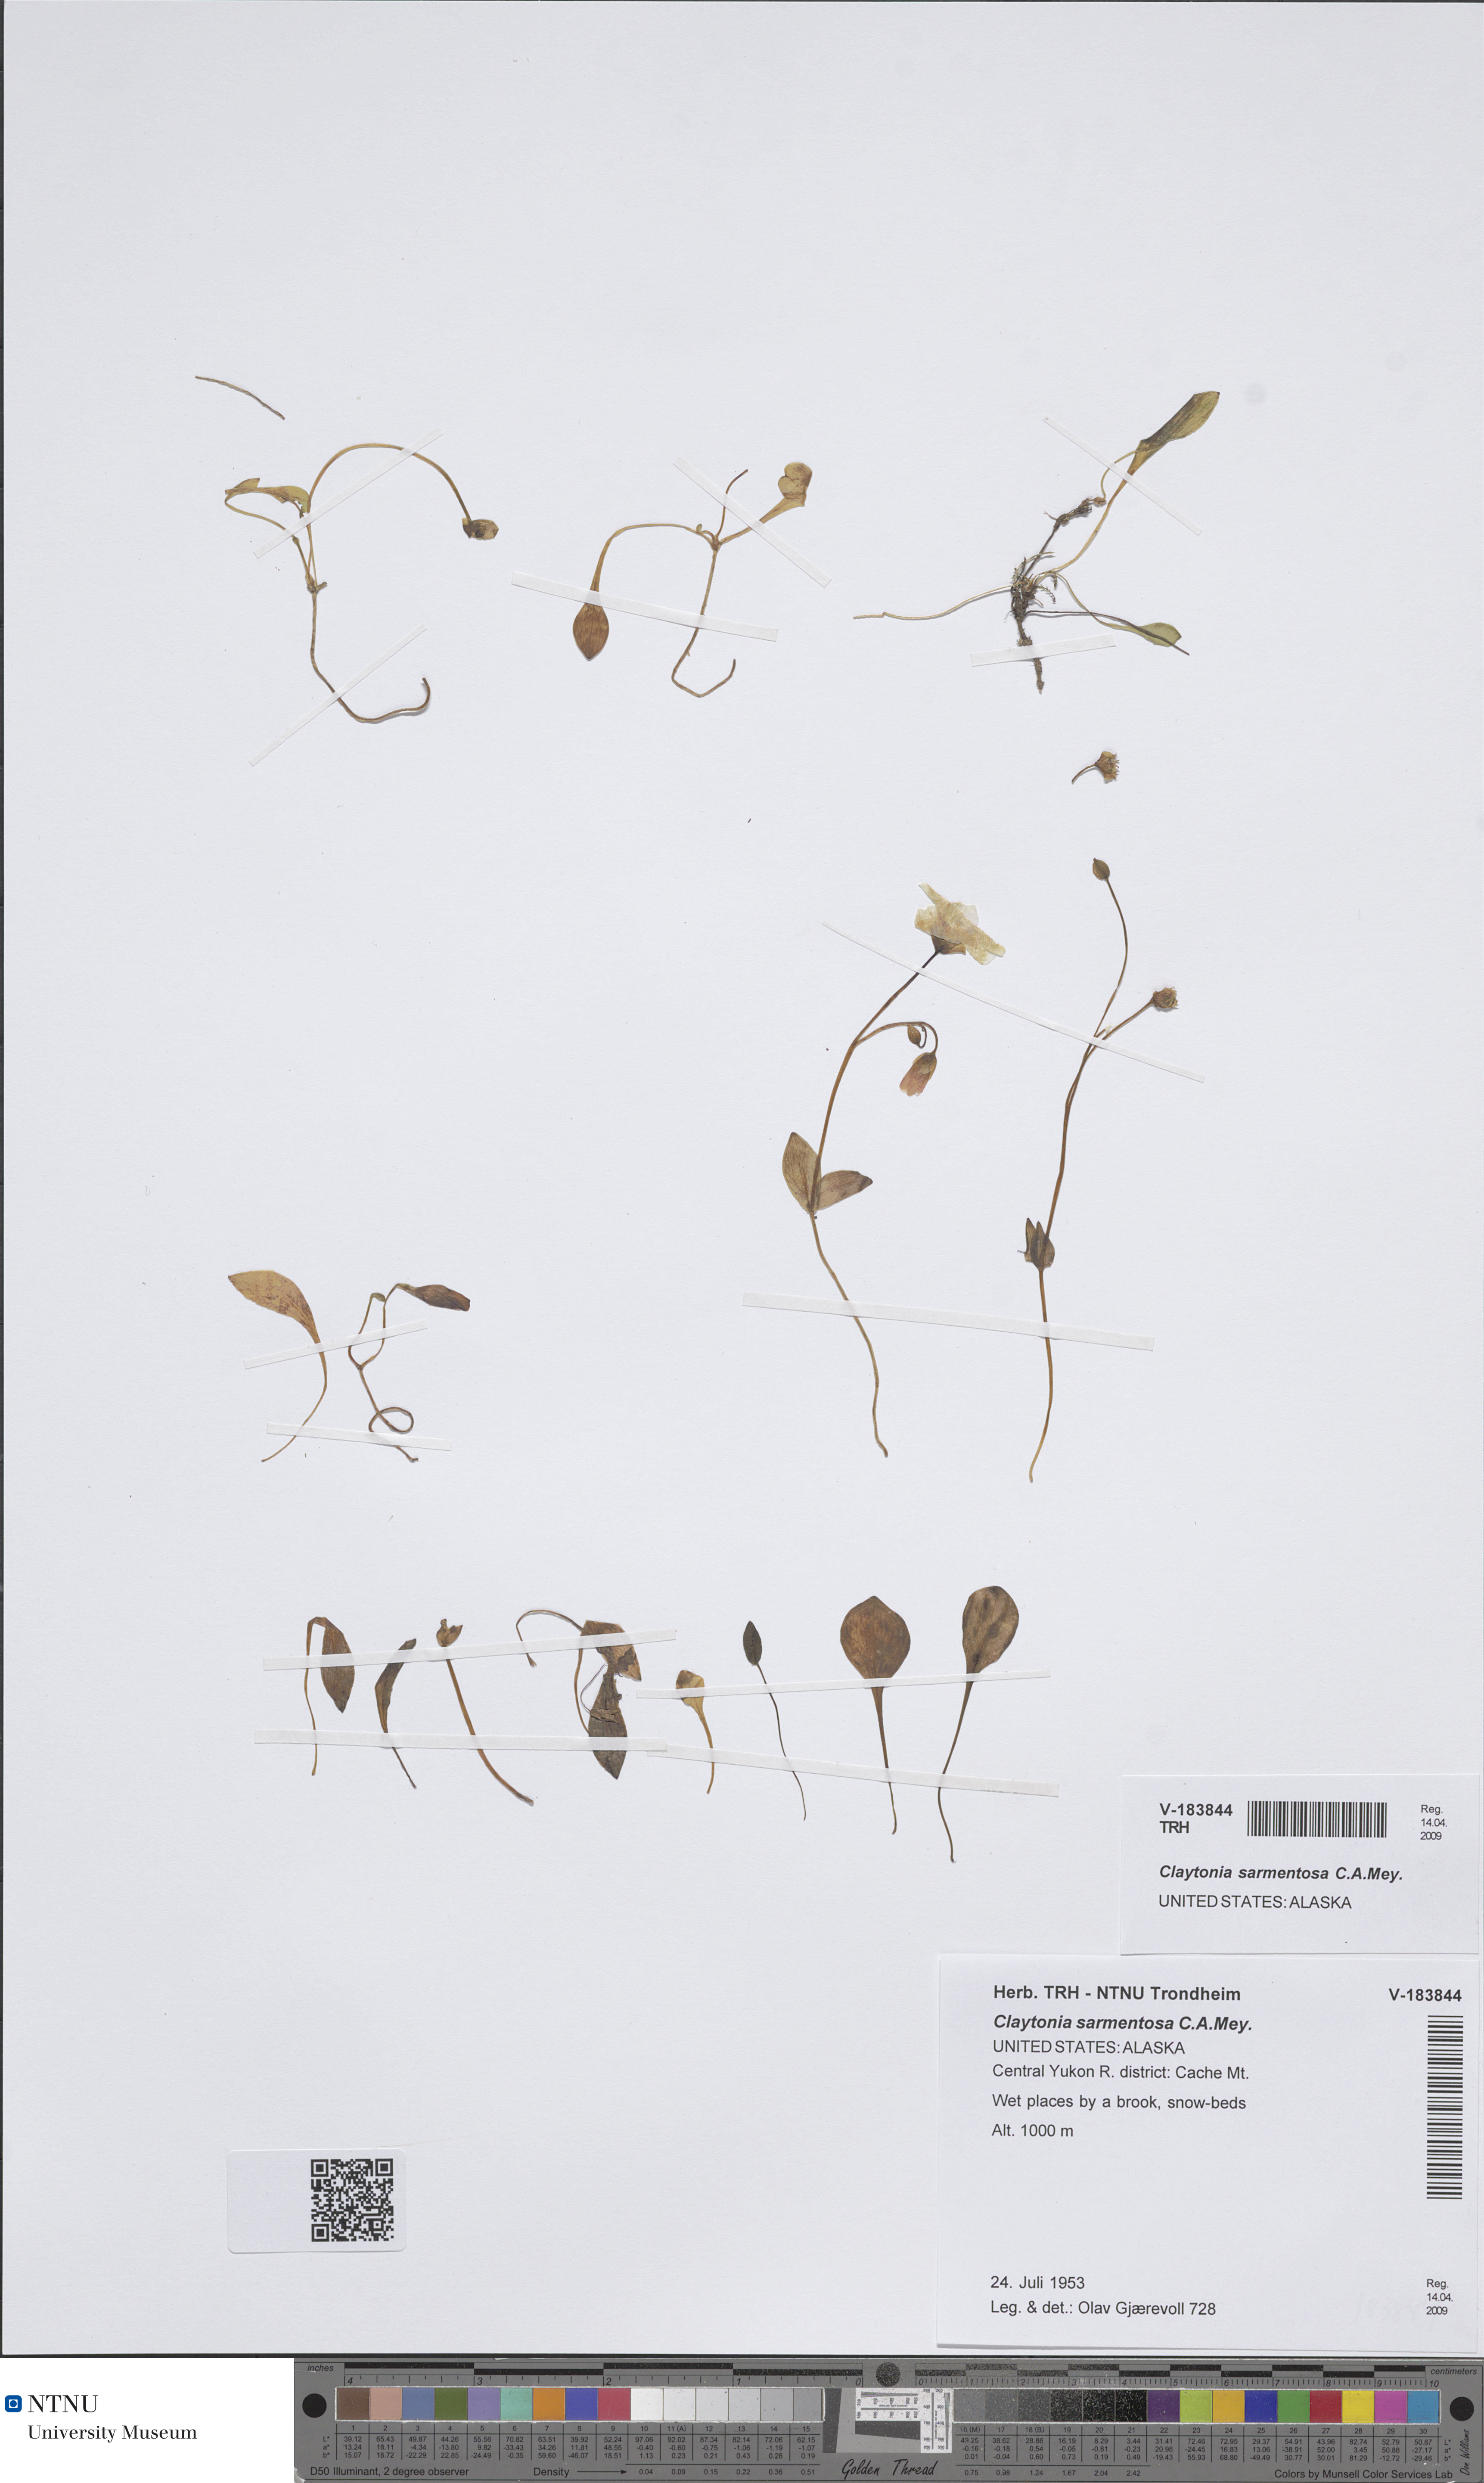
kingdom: Plantae
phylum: Tracheophyta
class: Magnoliopsida
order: Caryophyllales
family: Montiaceae
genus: Claytonia
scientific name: Claytonia sarmentosa
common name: Alaska spring beauty
